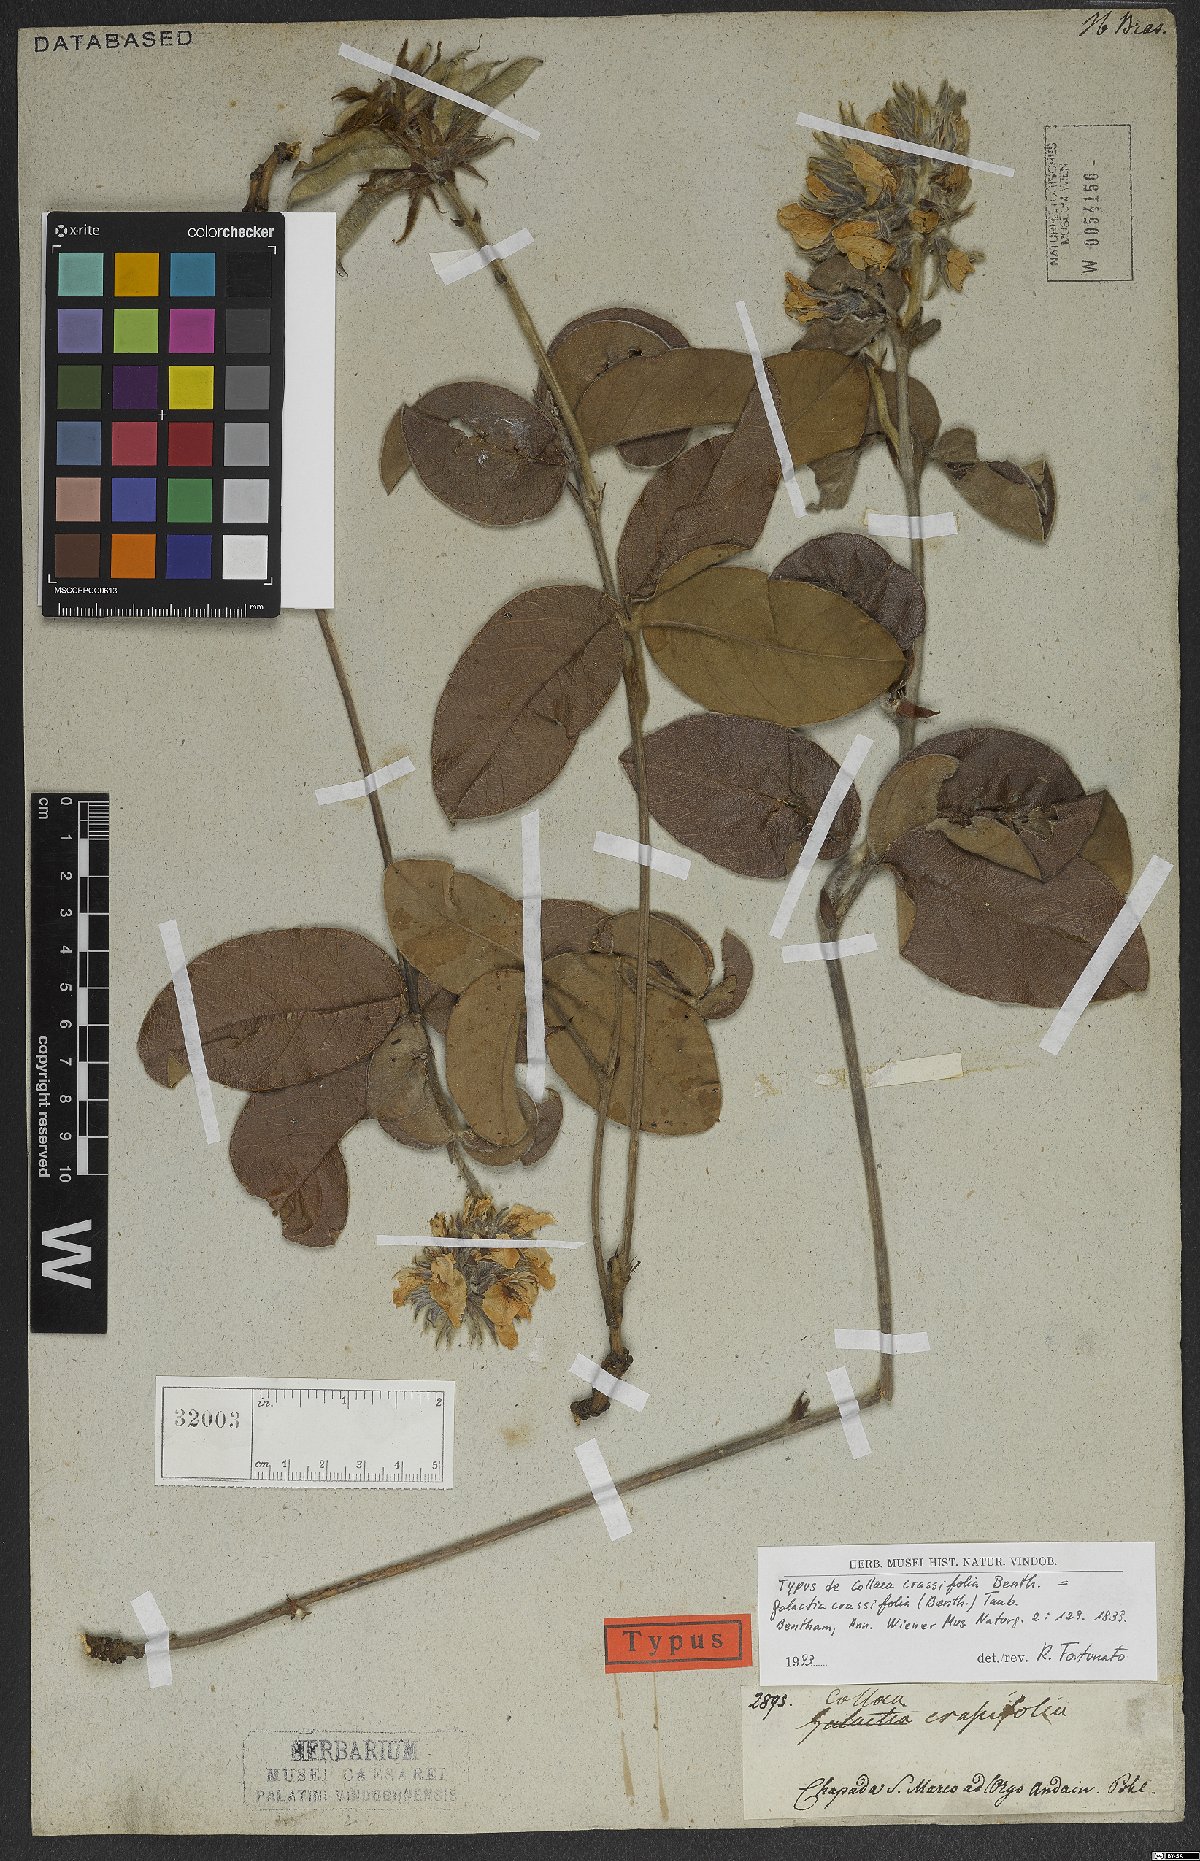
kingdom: Plantae
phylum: Tracheophyta
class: Magnoliopsida
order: Fabales
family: Fabaceae
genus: Betencourtia
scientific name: Betencourtia crassifolia
